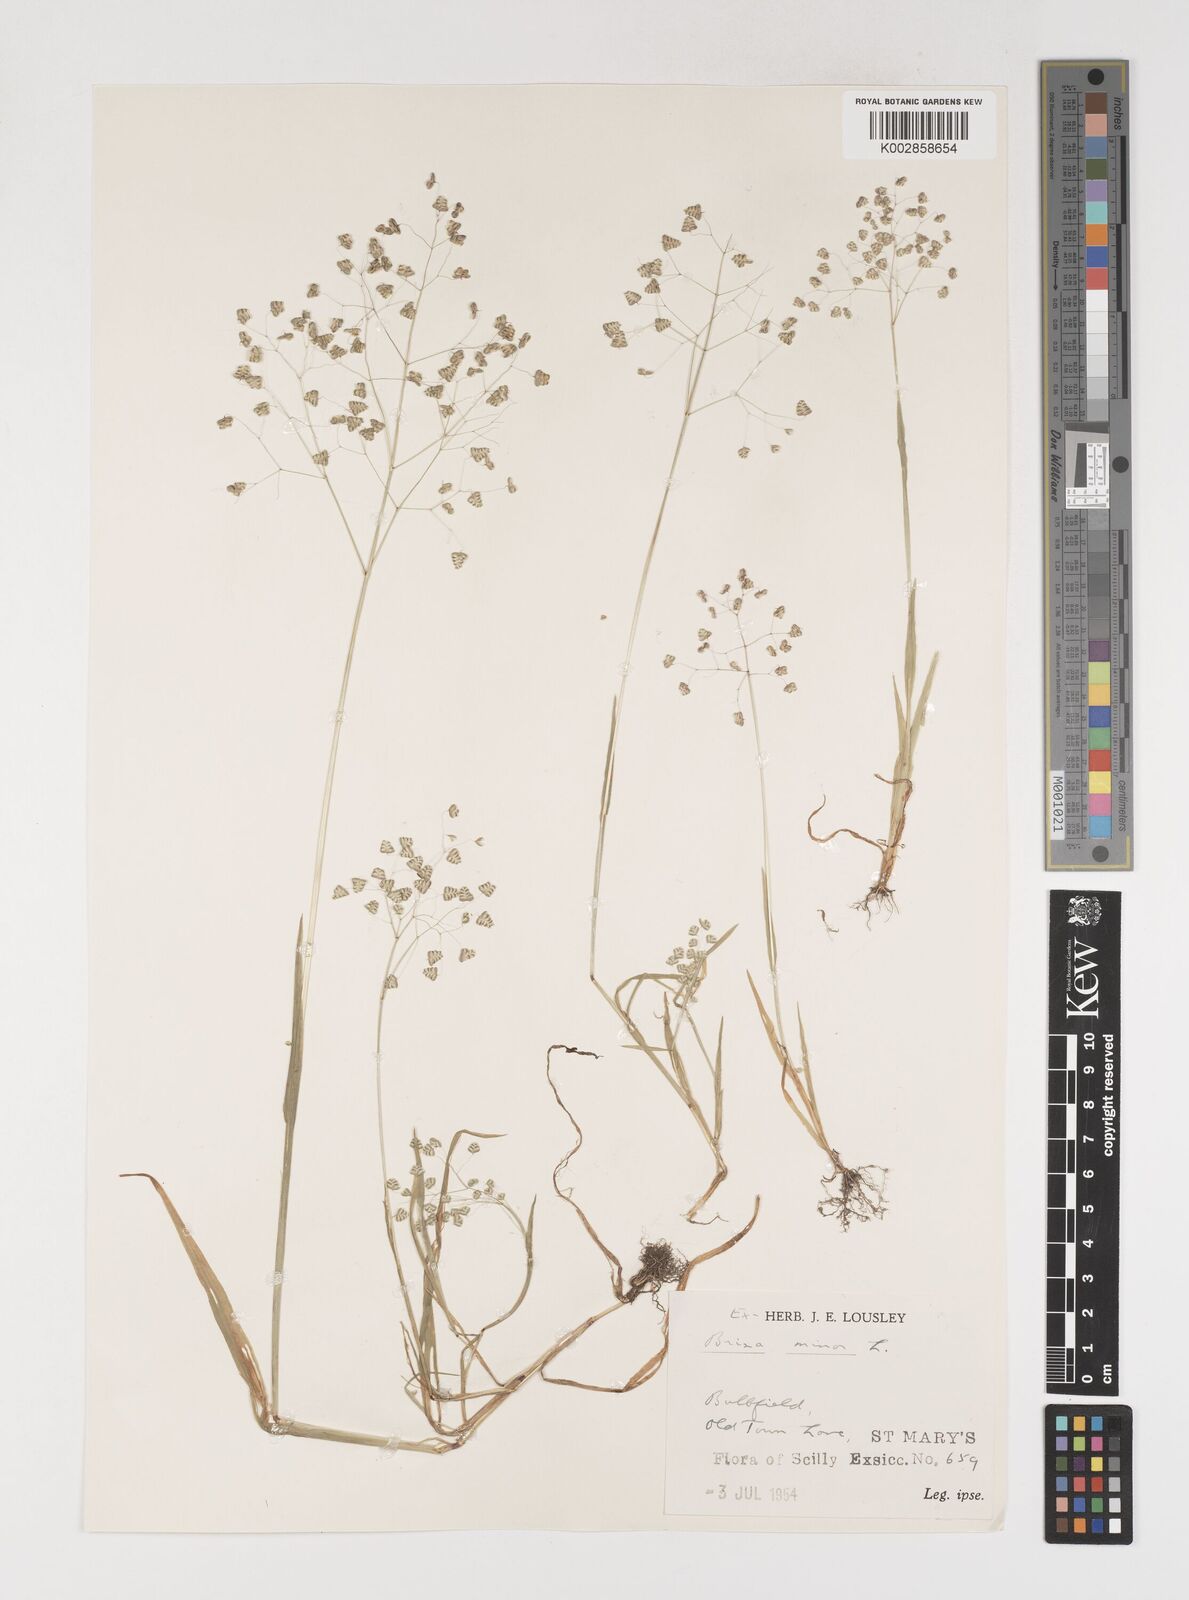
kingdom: Plantae
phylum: Tracheophyta
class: Liliopsida
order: Poales
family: Poaceae
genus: Briza
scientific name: Briza minor
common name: Lesser quaking-grass
